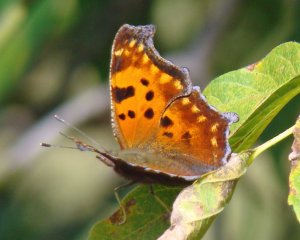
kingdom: Animalia
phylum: Arthropoda
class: Insecta
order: Lepidoptera
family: Nymphalidae
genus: Polygonia
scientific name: Polygonia comma
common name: Eastern Comma
